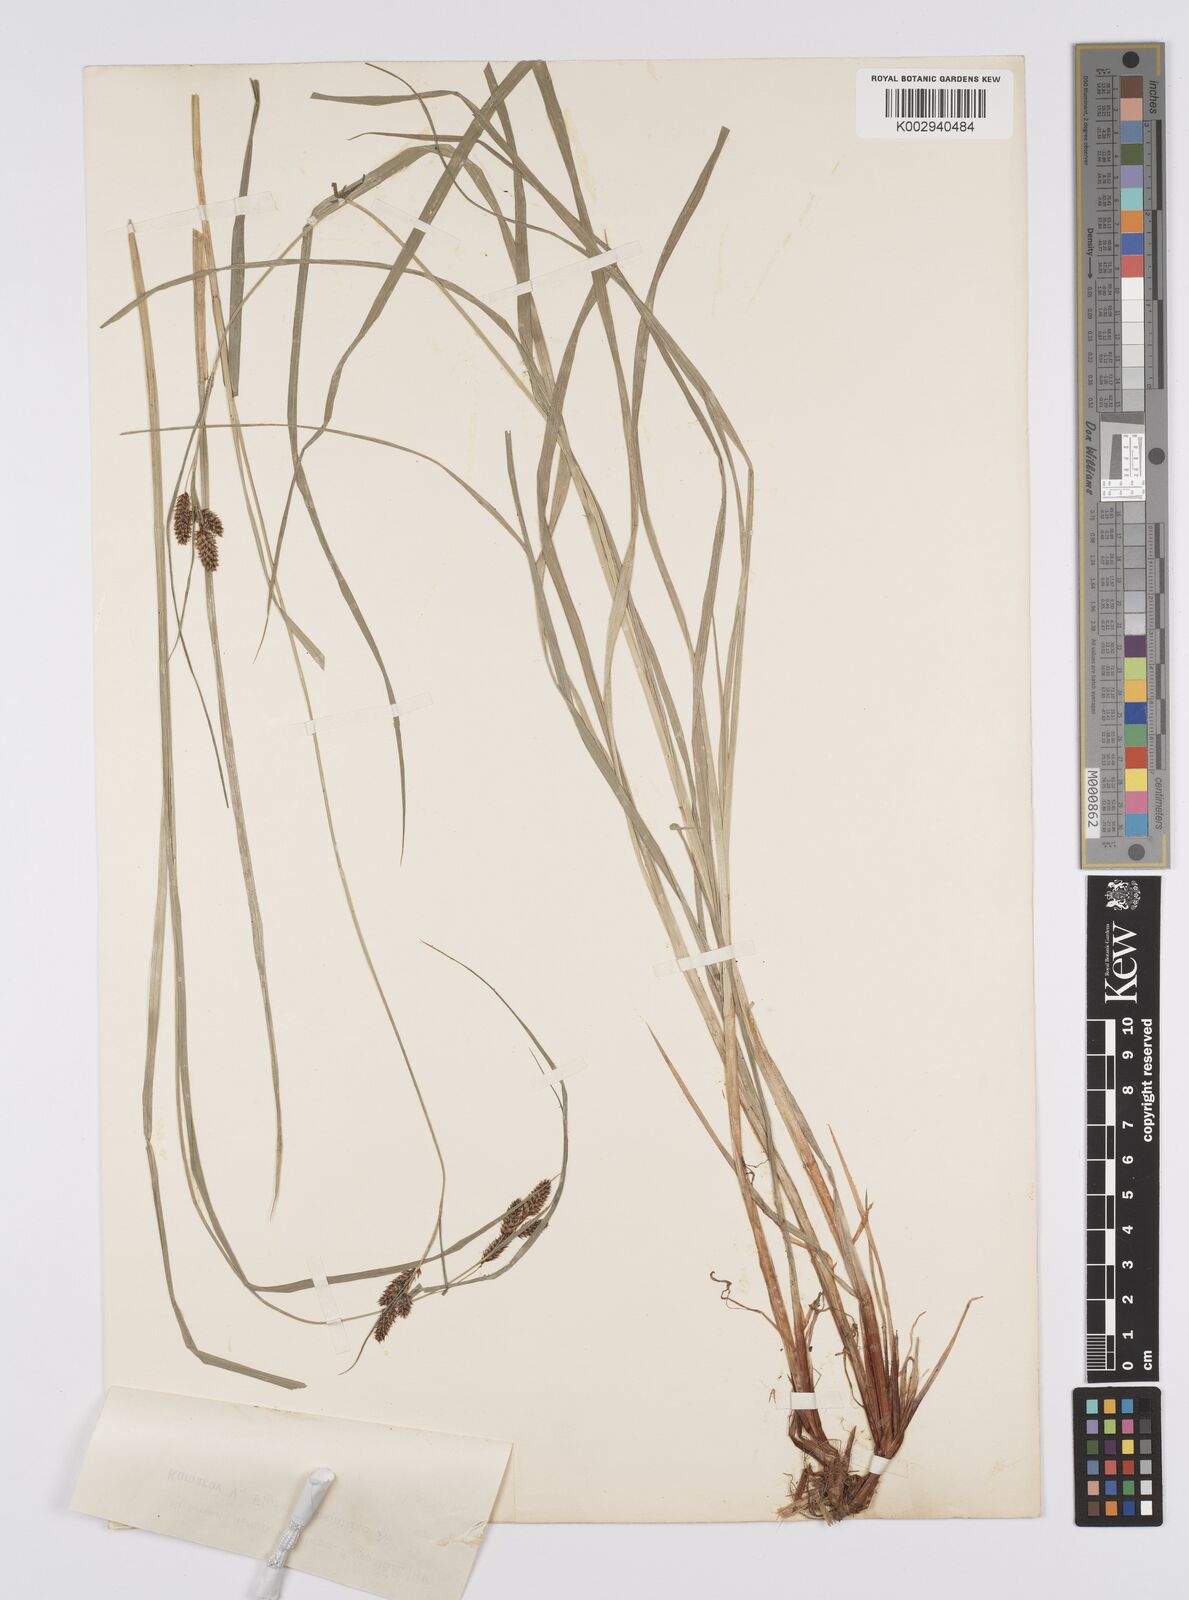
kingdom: Plantae
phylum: Tracheophyta
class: Liliopsida
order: Poales
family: Cyperaceae
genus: Carex
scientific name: Carex hancockiana
